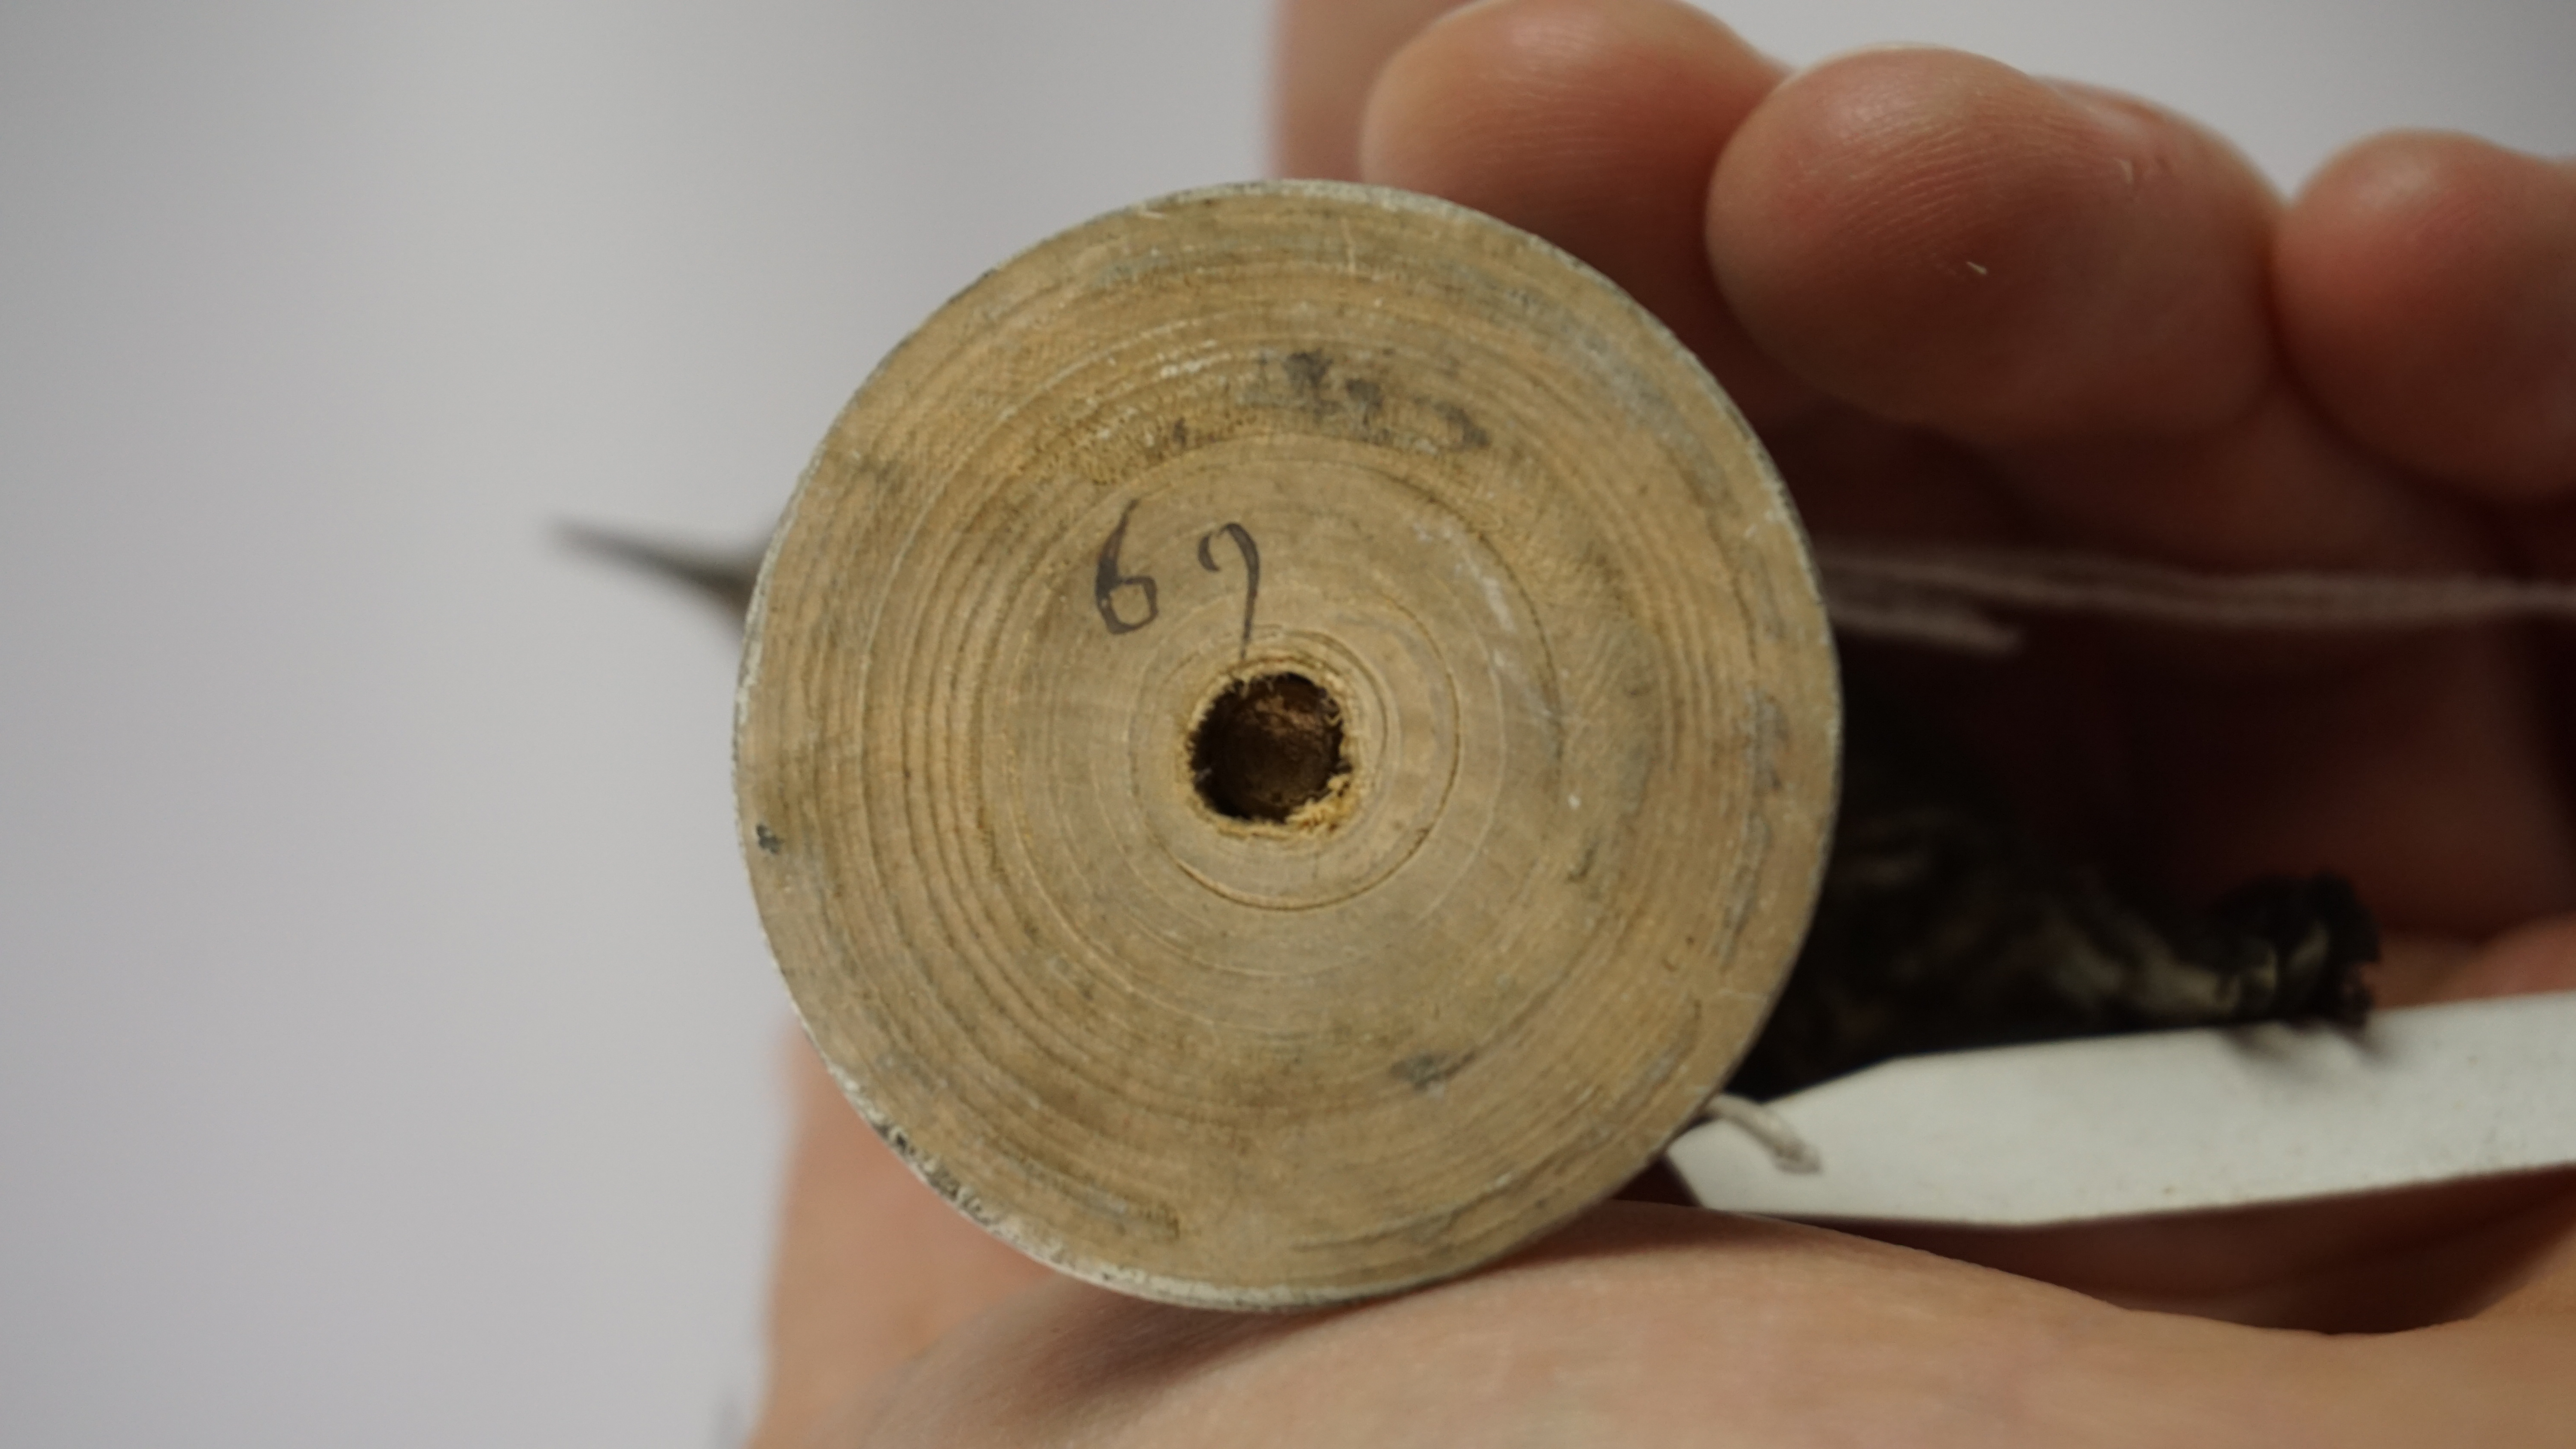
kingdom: Animalia
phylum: Chordata
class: Aves
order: Piciformes
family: Picidae
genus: Picumnus
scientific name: Picumnus cirratus
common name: White-barred piculet
